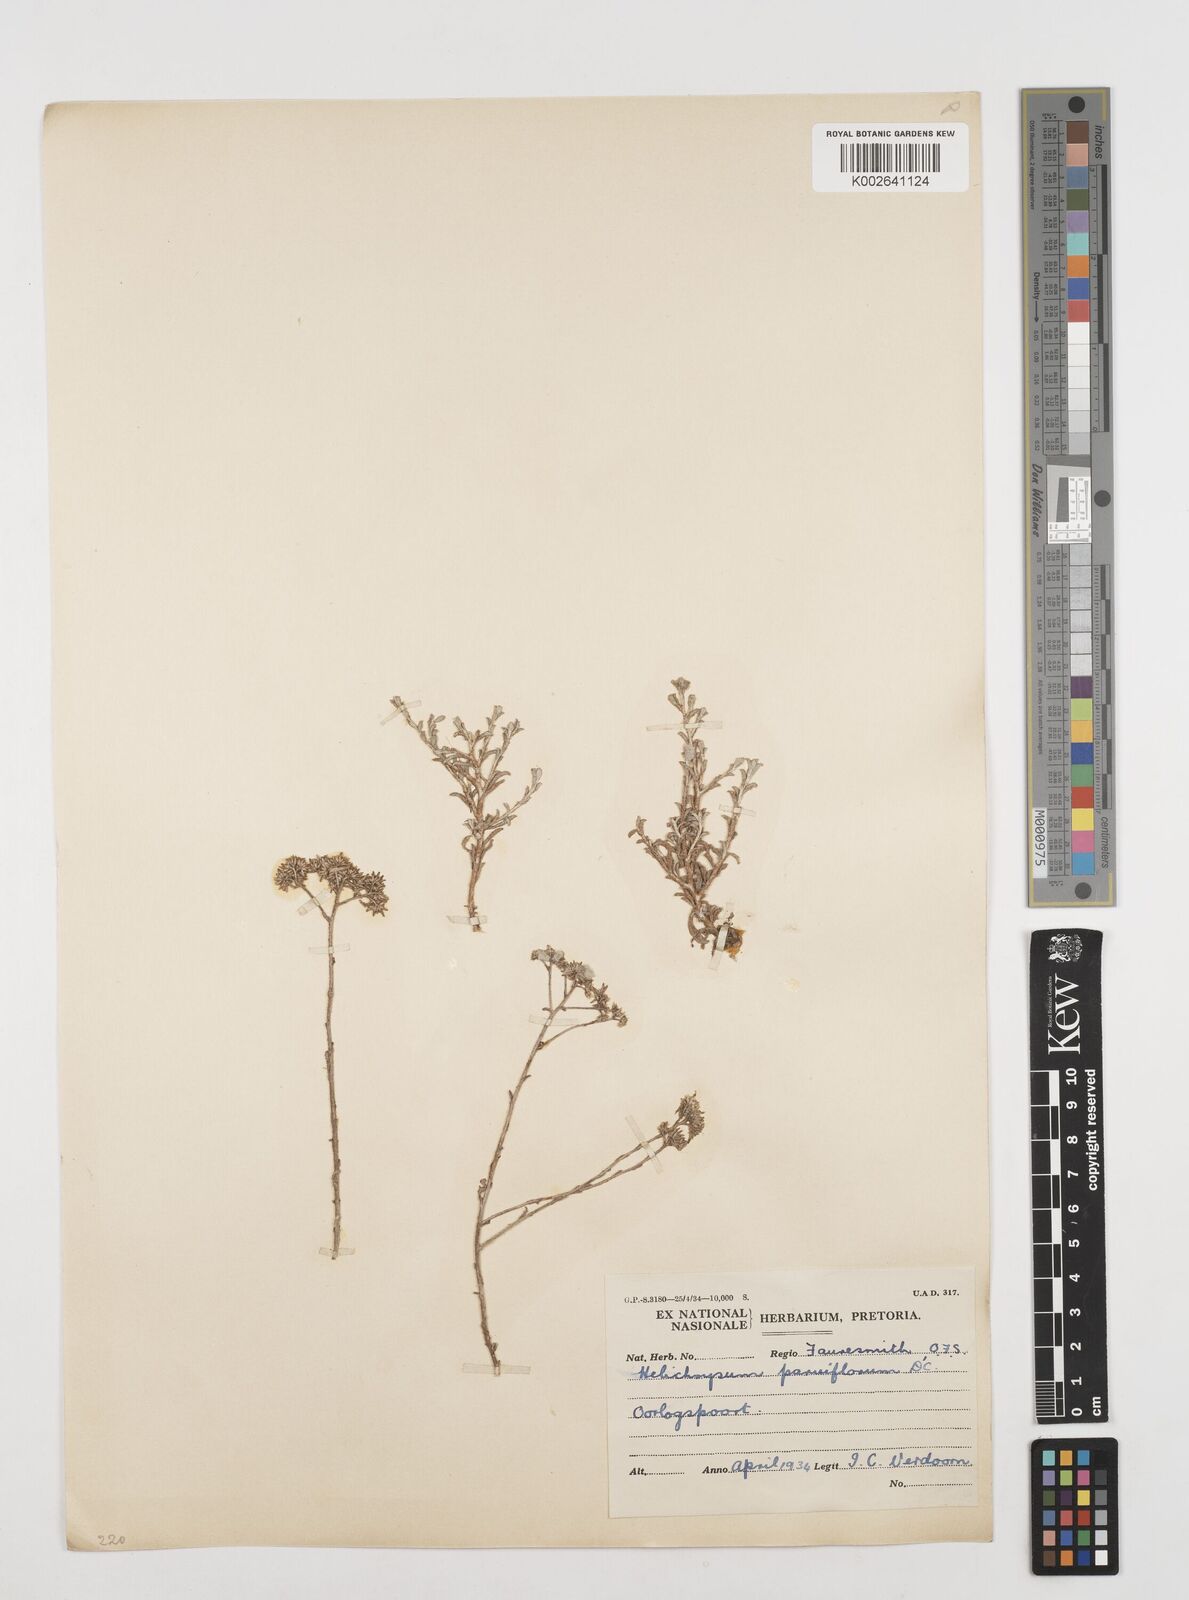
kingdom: Plantae
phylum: Tracheophyta
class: Magnoliopsida
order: Asterales
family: Asteraceae
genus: Helichrysum
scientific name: Helichrysum rutilans
